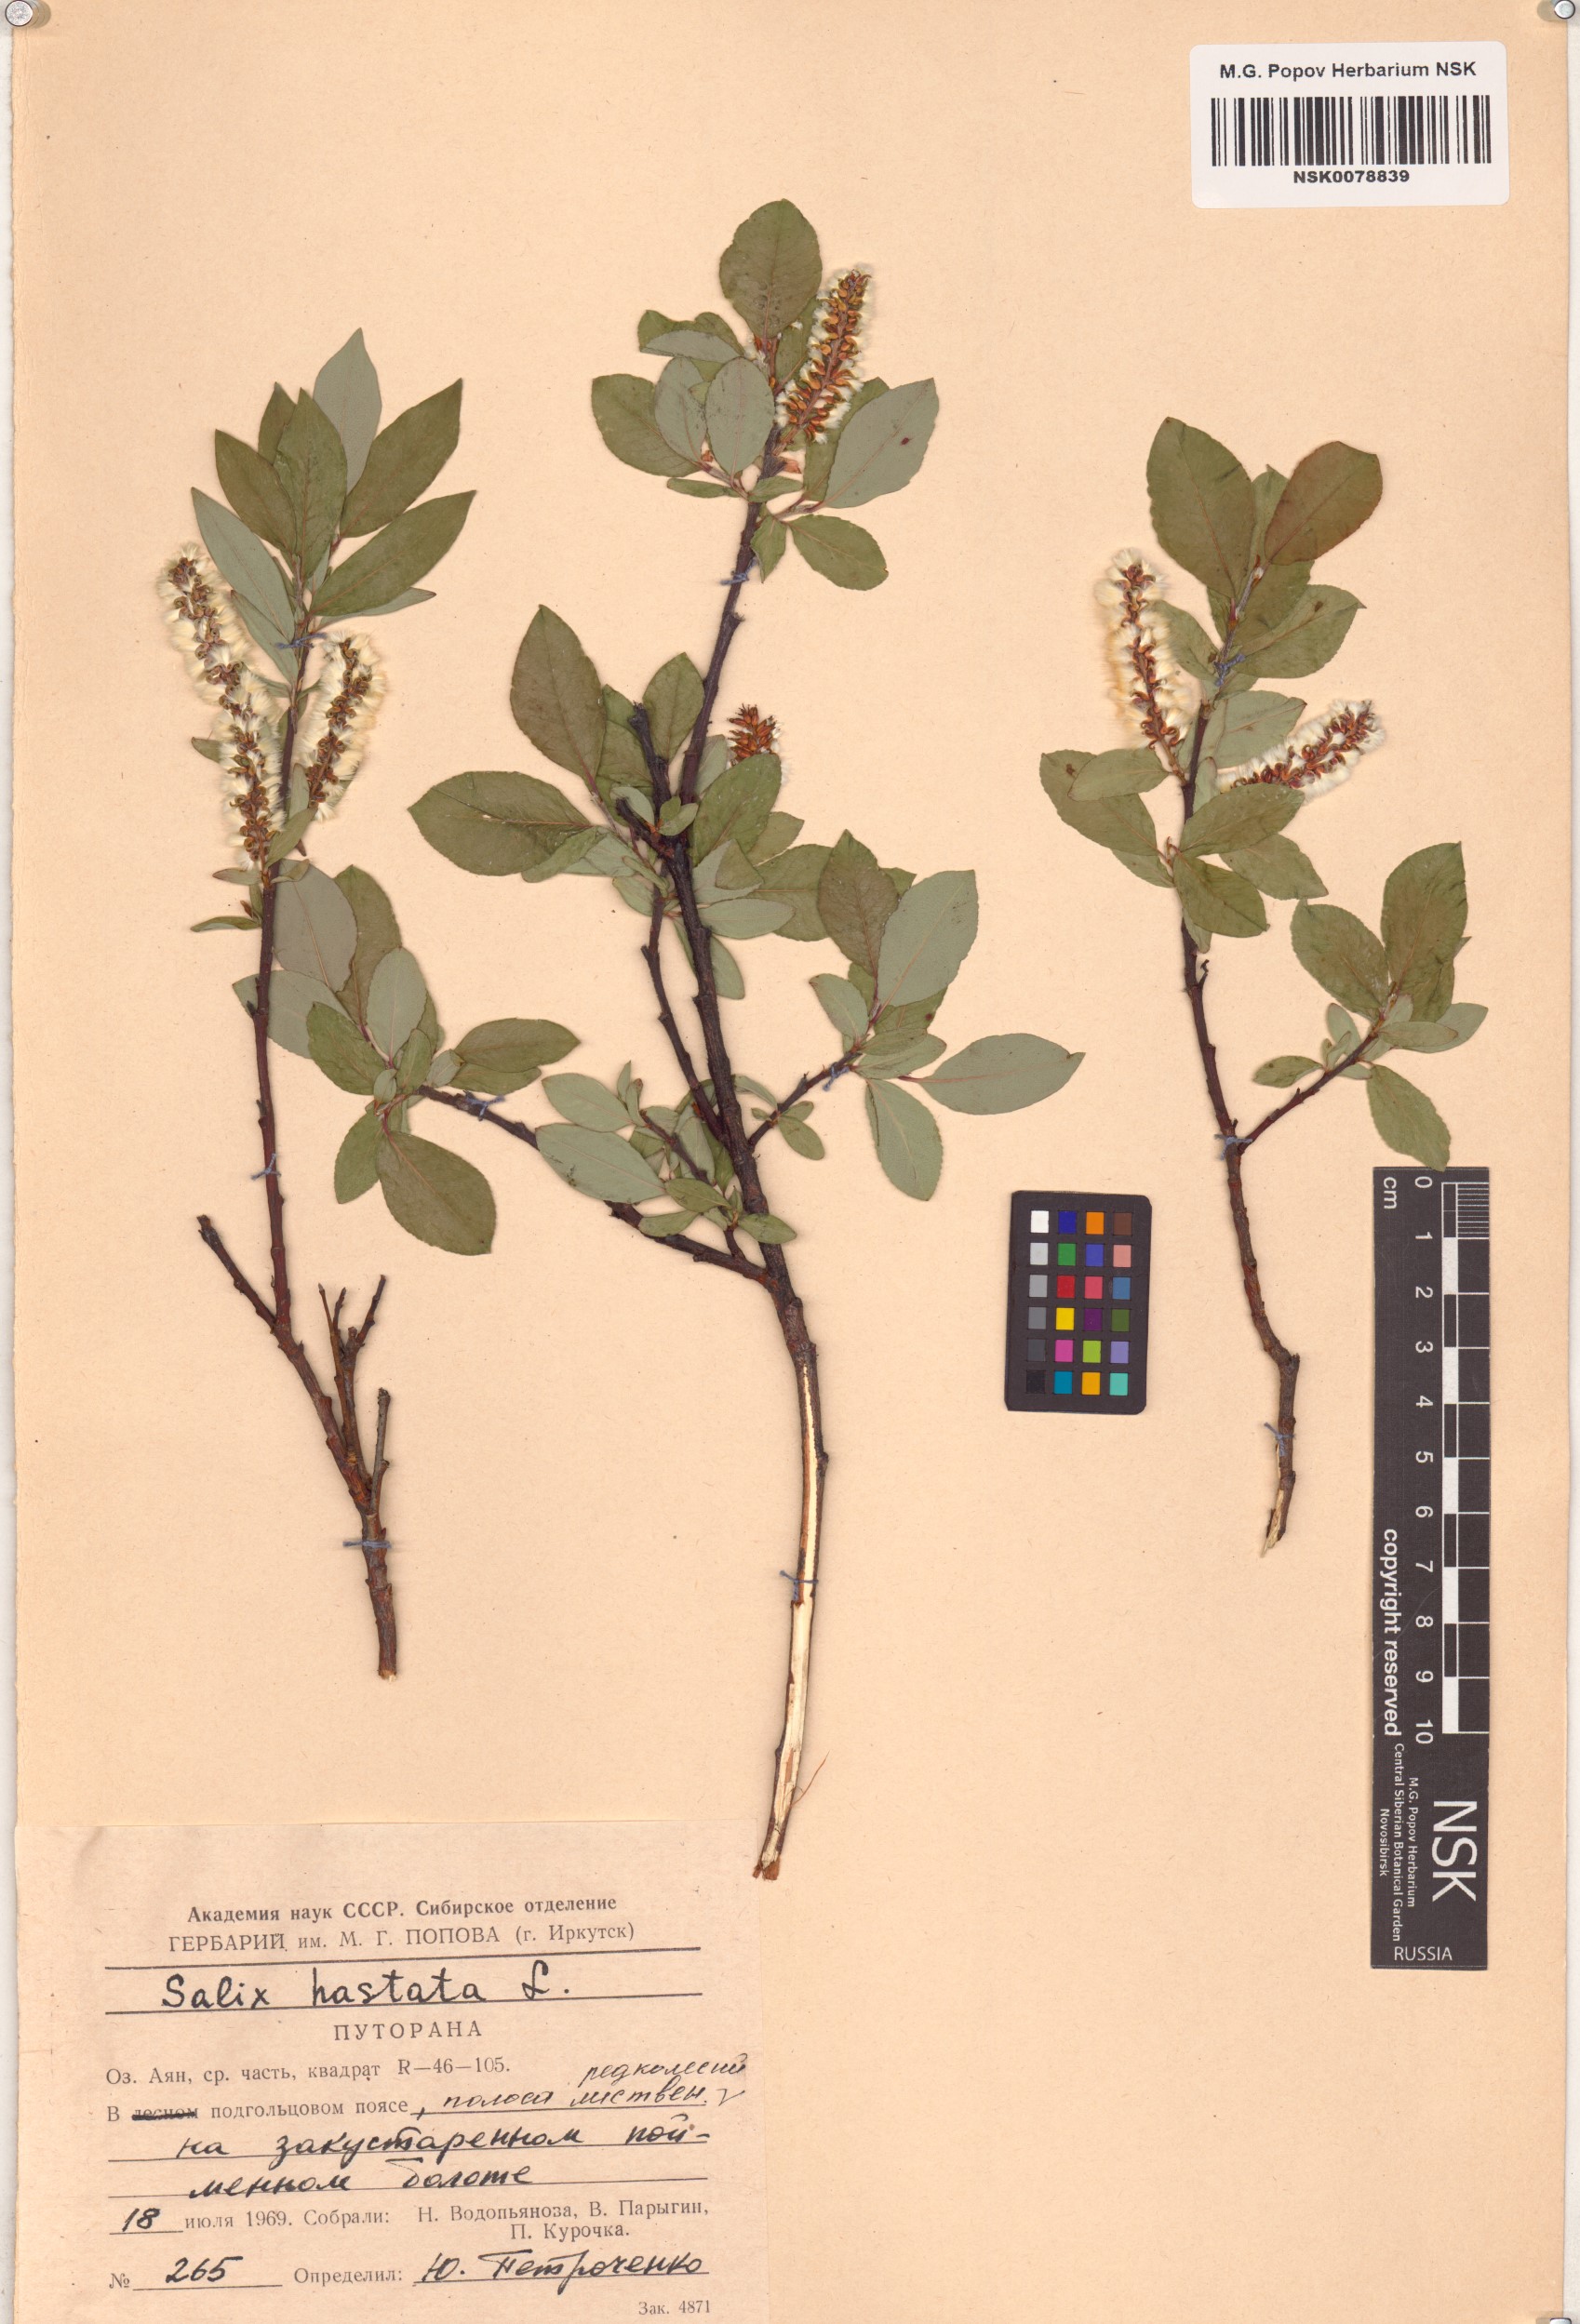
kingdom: Plantae
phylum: Tracheophyta
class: Magnoliopsida
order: Malpighiales
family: Salicaceae
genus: Salix
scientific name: Salix hastata
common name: Halberd willow
